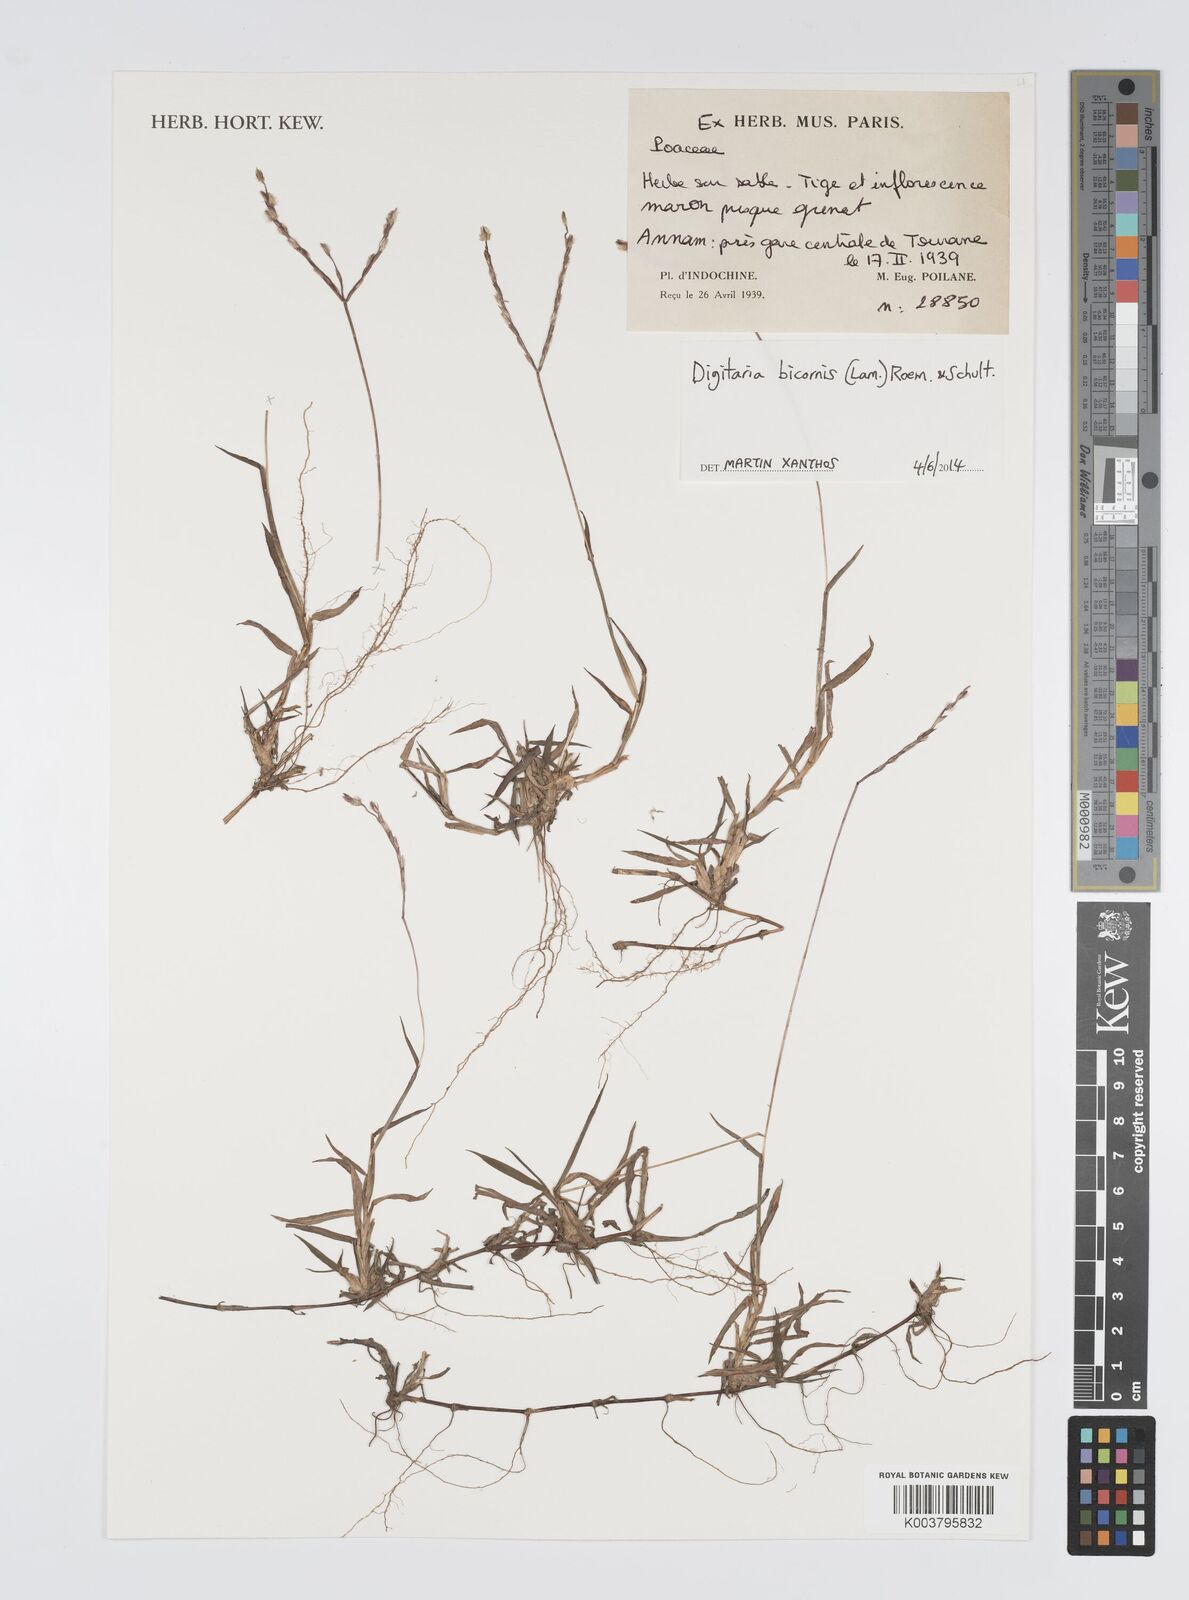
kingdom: Plantae
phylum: Tracheophyta
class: Liliopsida
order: Poales
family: Poaceae
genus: Digitaria
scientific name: Digitaria bicornis
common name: Asian crabgrass
